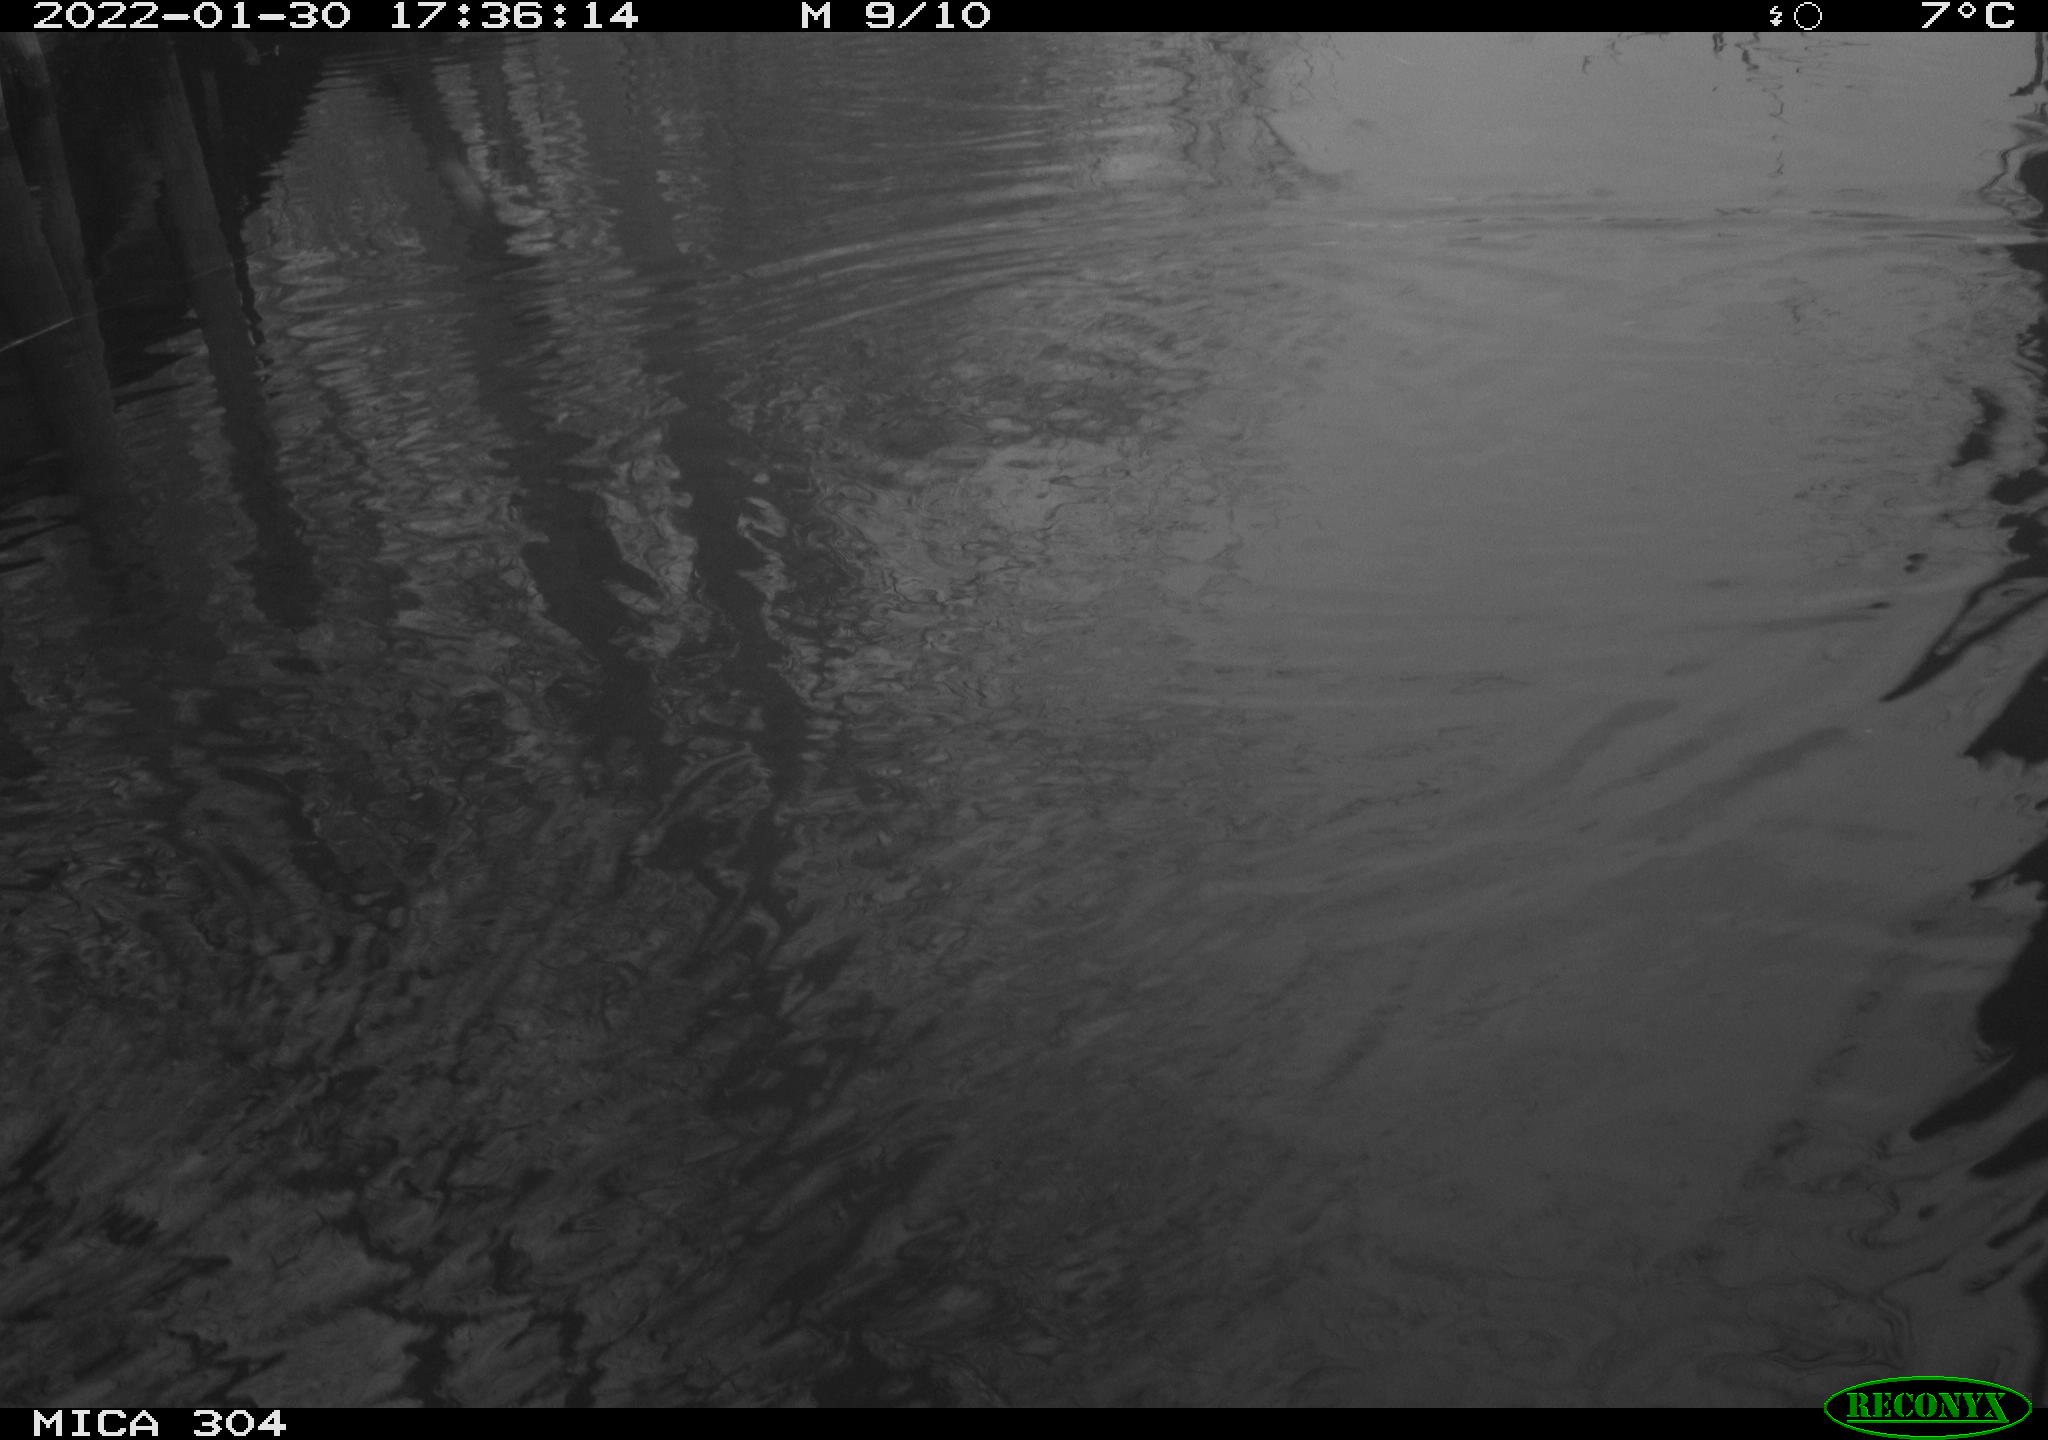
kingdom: Animalia
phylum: Chordata
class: Aves
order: Gruiformes
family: Rallidae
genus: Gallinula
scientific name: Gallinula chloropus
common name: Common moorhen
